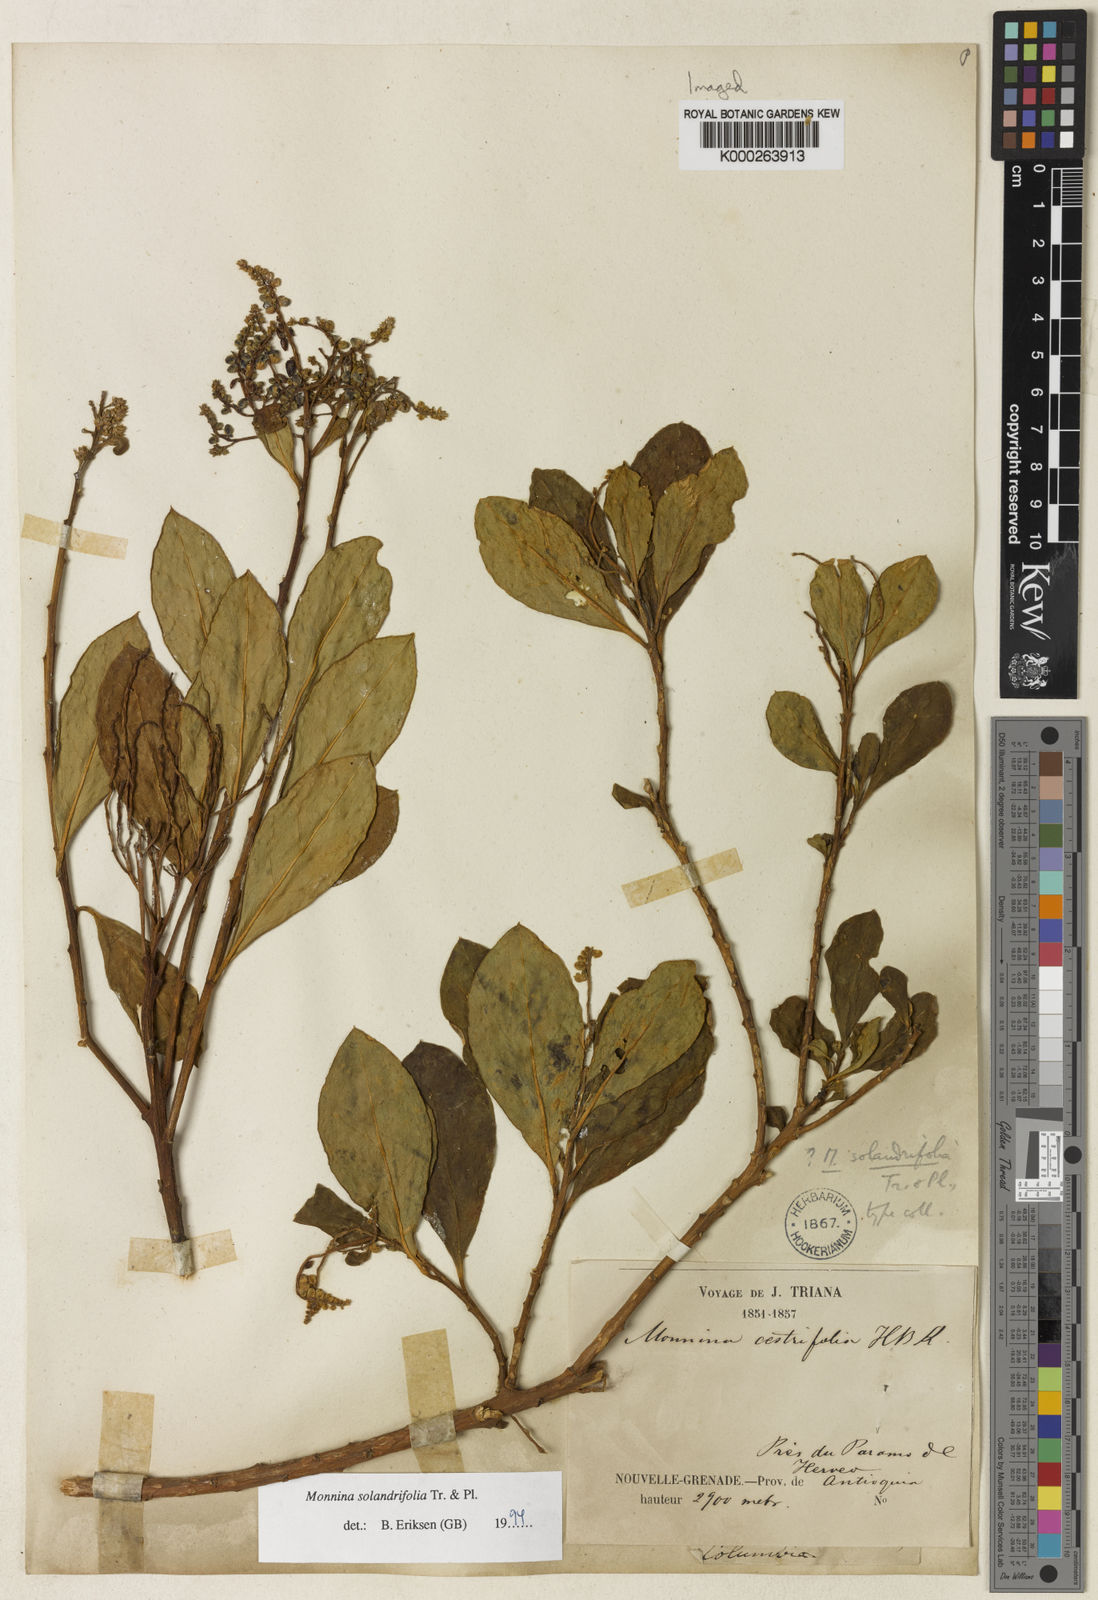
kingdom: Plantae
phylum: Tracheophyta
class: Magnoliopsida
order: Fabales
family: Polygalaceae
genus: Monnina
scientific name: Monnina solandrifolia
